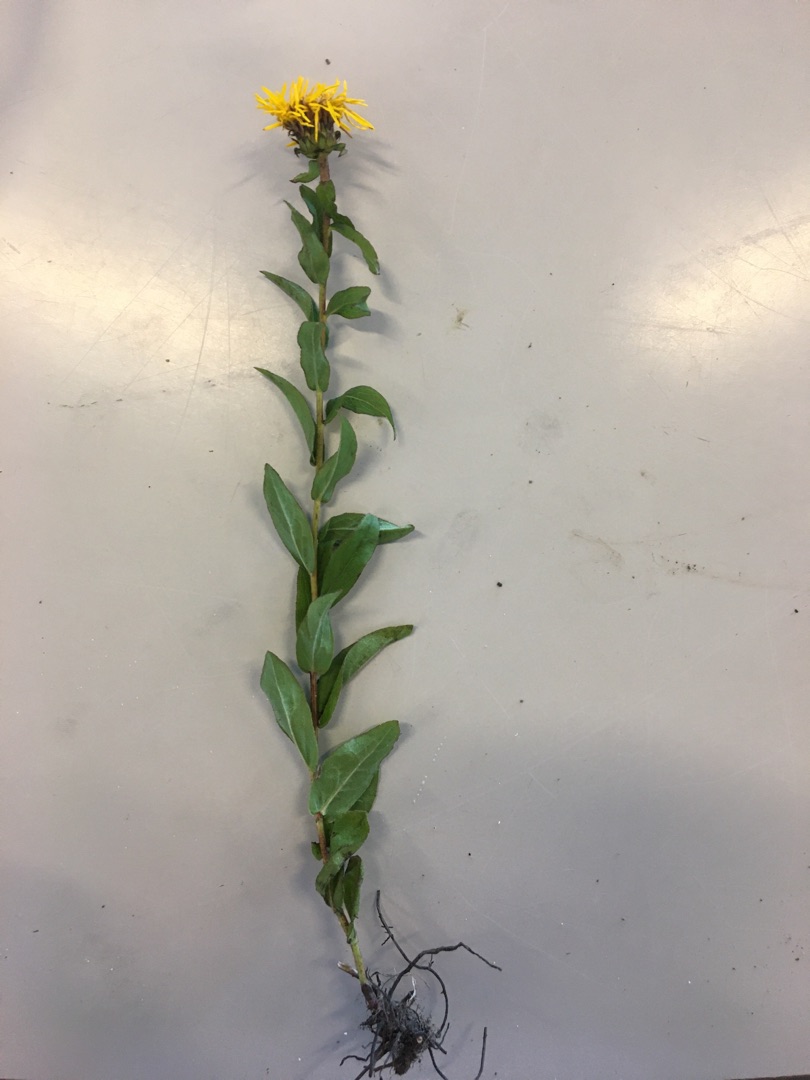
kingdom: Plantae
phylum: Tracheophyta
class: Magnoliopsida
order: Asterales
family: Asteraceae
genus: Pentanema
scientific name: Pentanema salicinum
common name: Pile-alant
